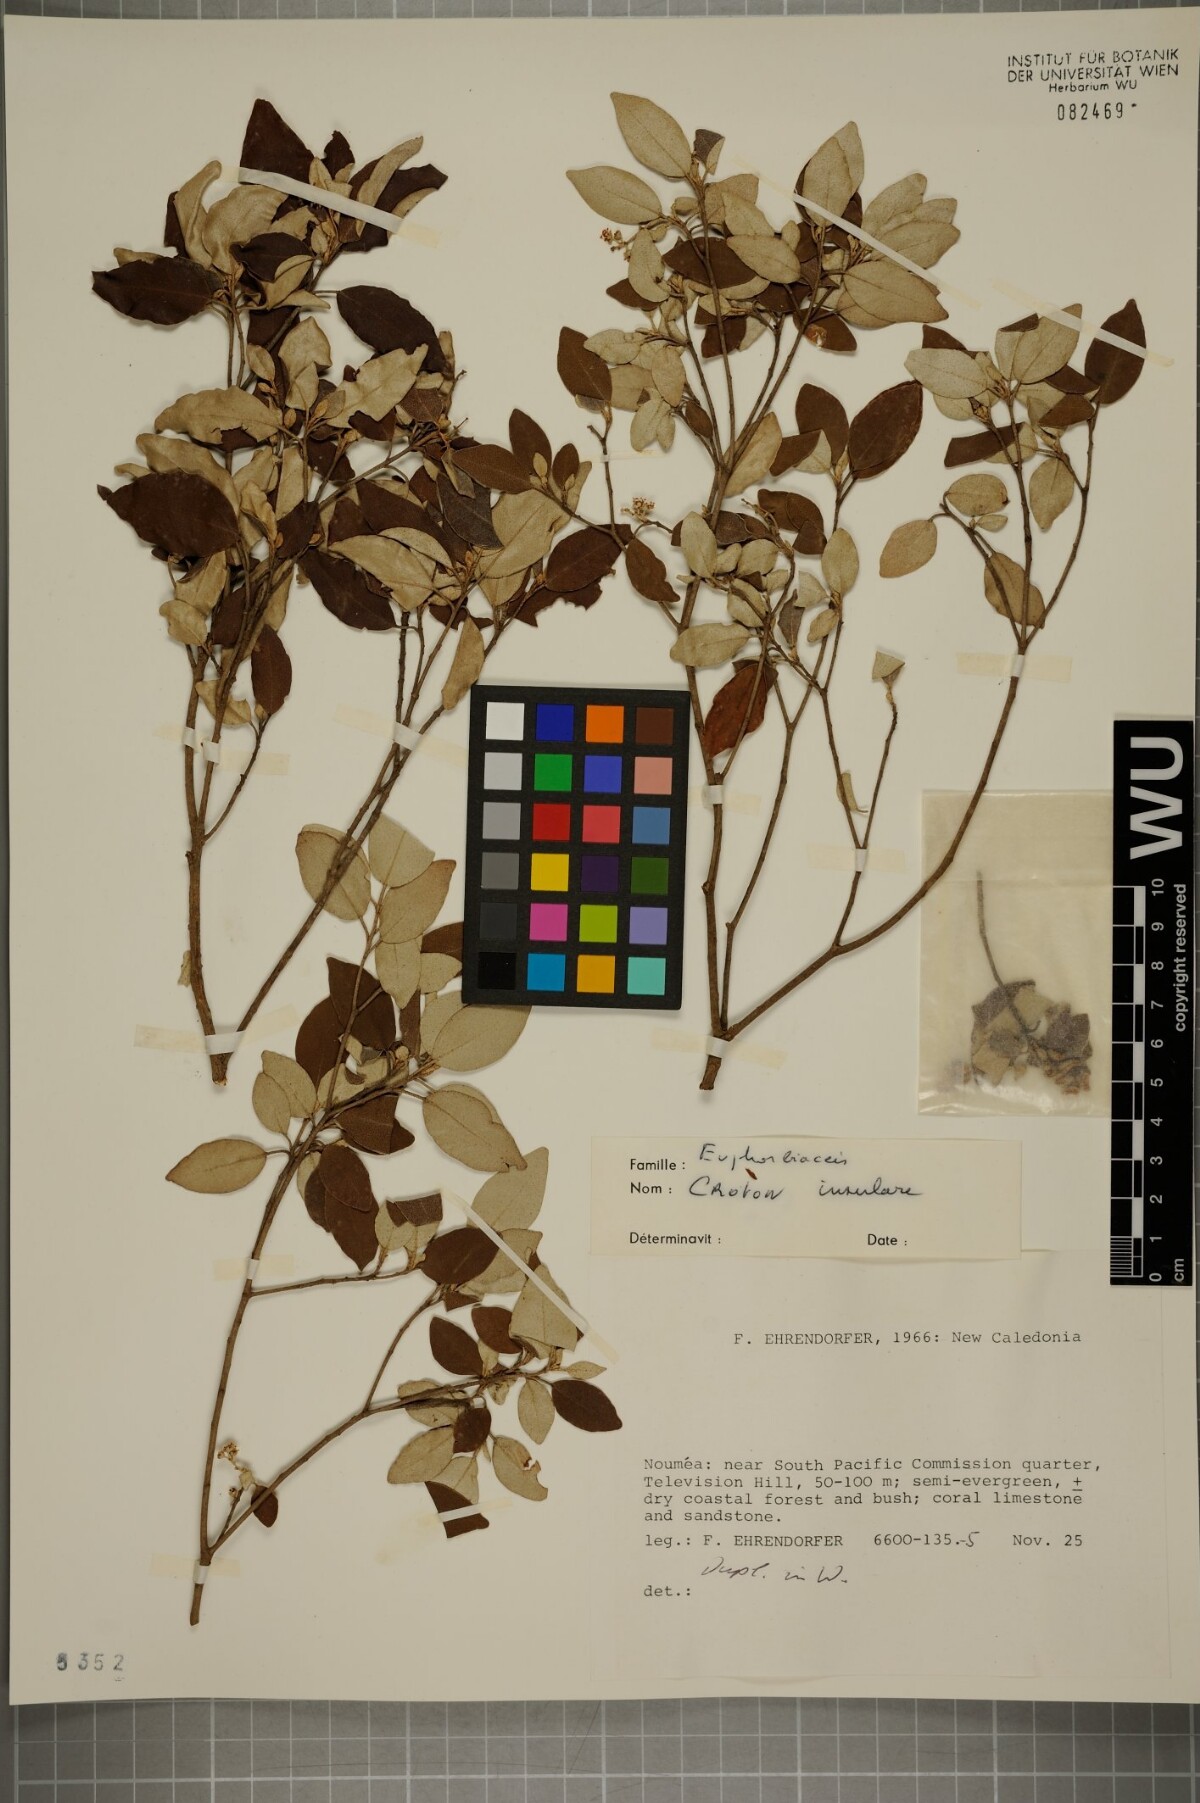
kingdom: Plantae
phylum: Tracheophyta
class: Magnoliopsida
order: Malpighiales
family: Euphorbiaceae
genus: Croton
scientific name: Croton insularis
